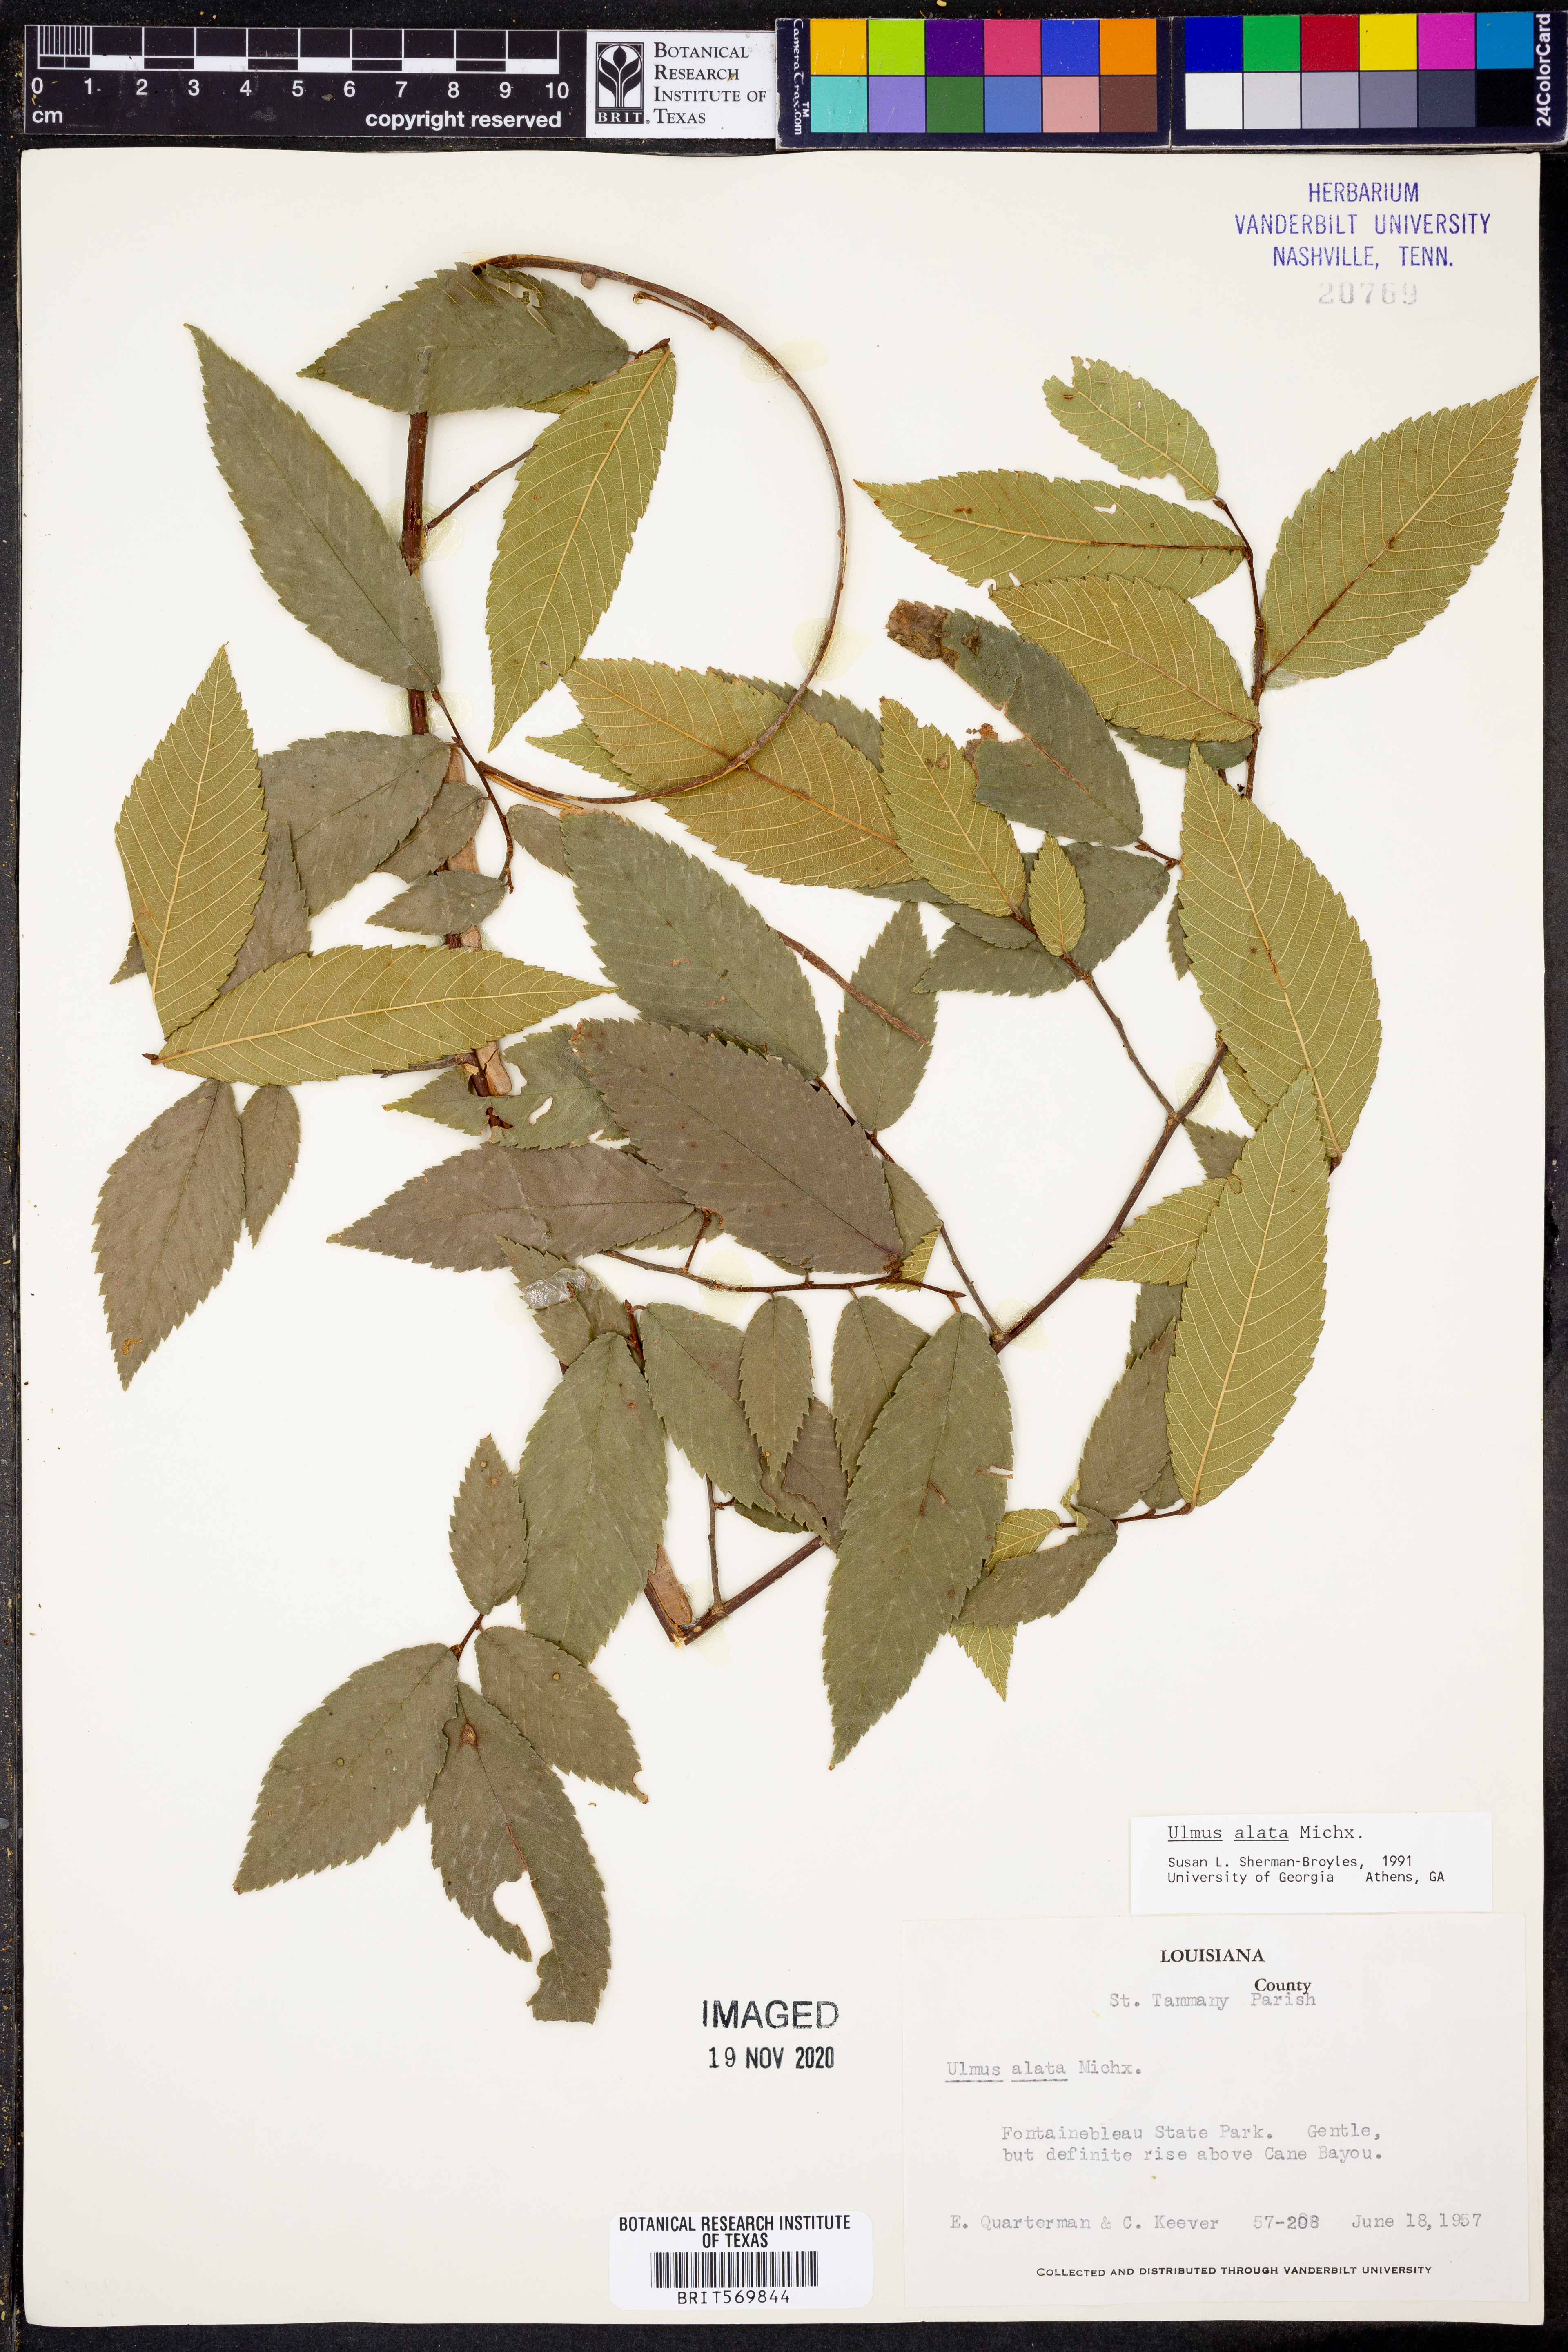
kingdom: Plantae
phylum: Tracheophyta
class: Magnoliopsida
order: Rosales
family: Ulmaceae
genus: Ulmus
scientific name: Ulmus alata
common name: Winged elm
